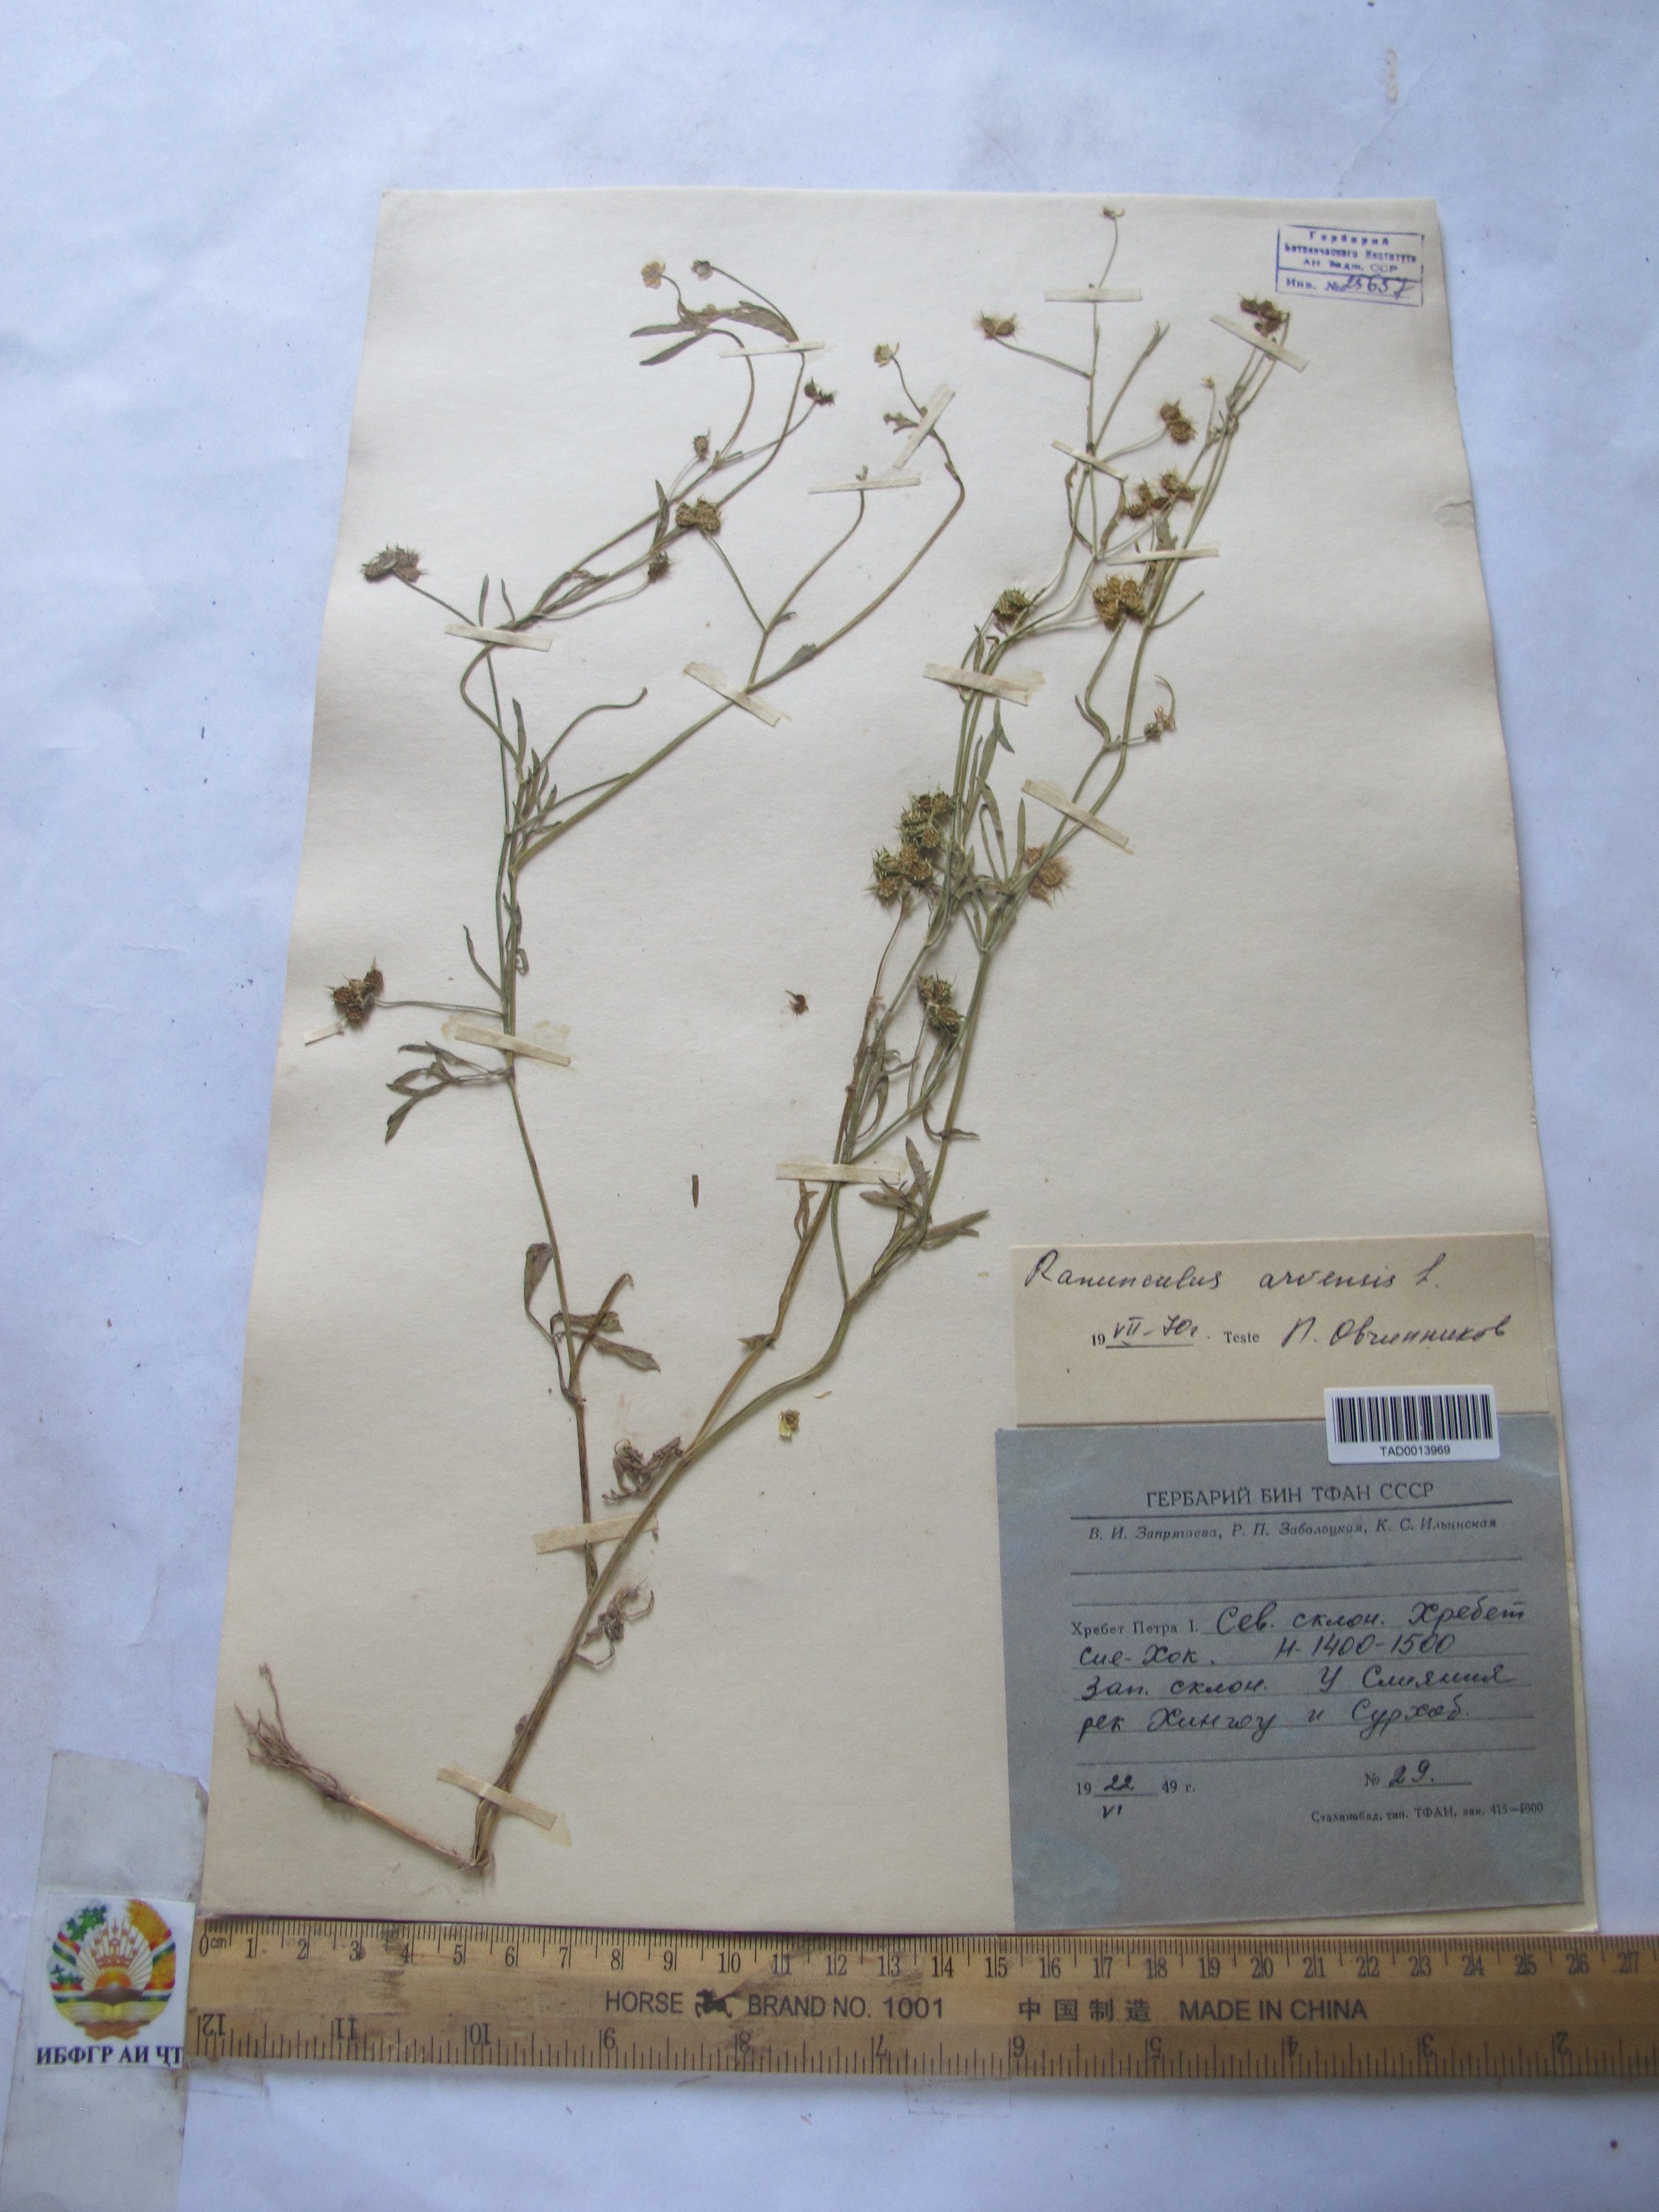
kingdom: Plantae
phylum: Tracheophyta
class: Magnoliopsida
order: Ranunculales
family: Ranunculaceae
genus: Ranunculus
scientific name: Ranunculus arvensis
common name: Corn buttercup
